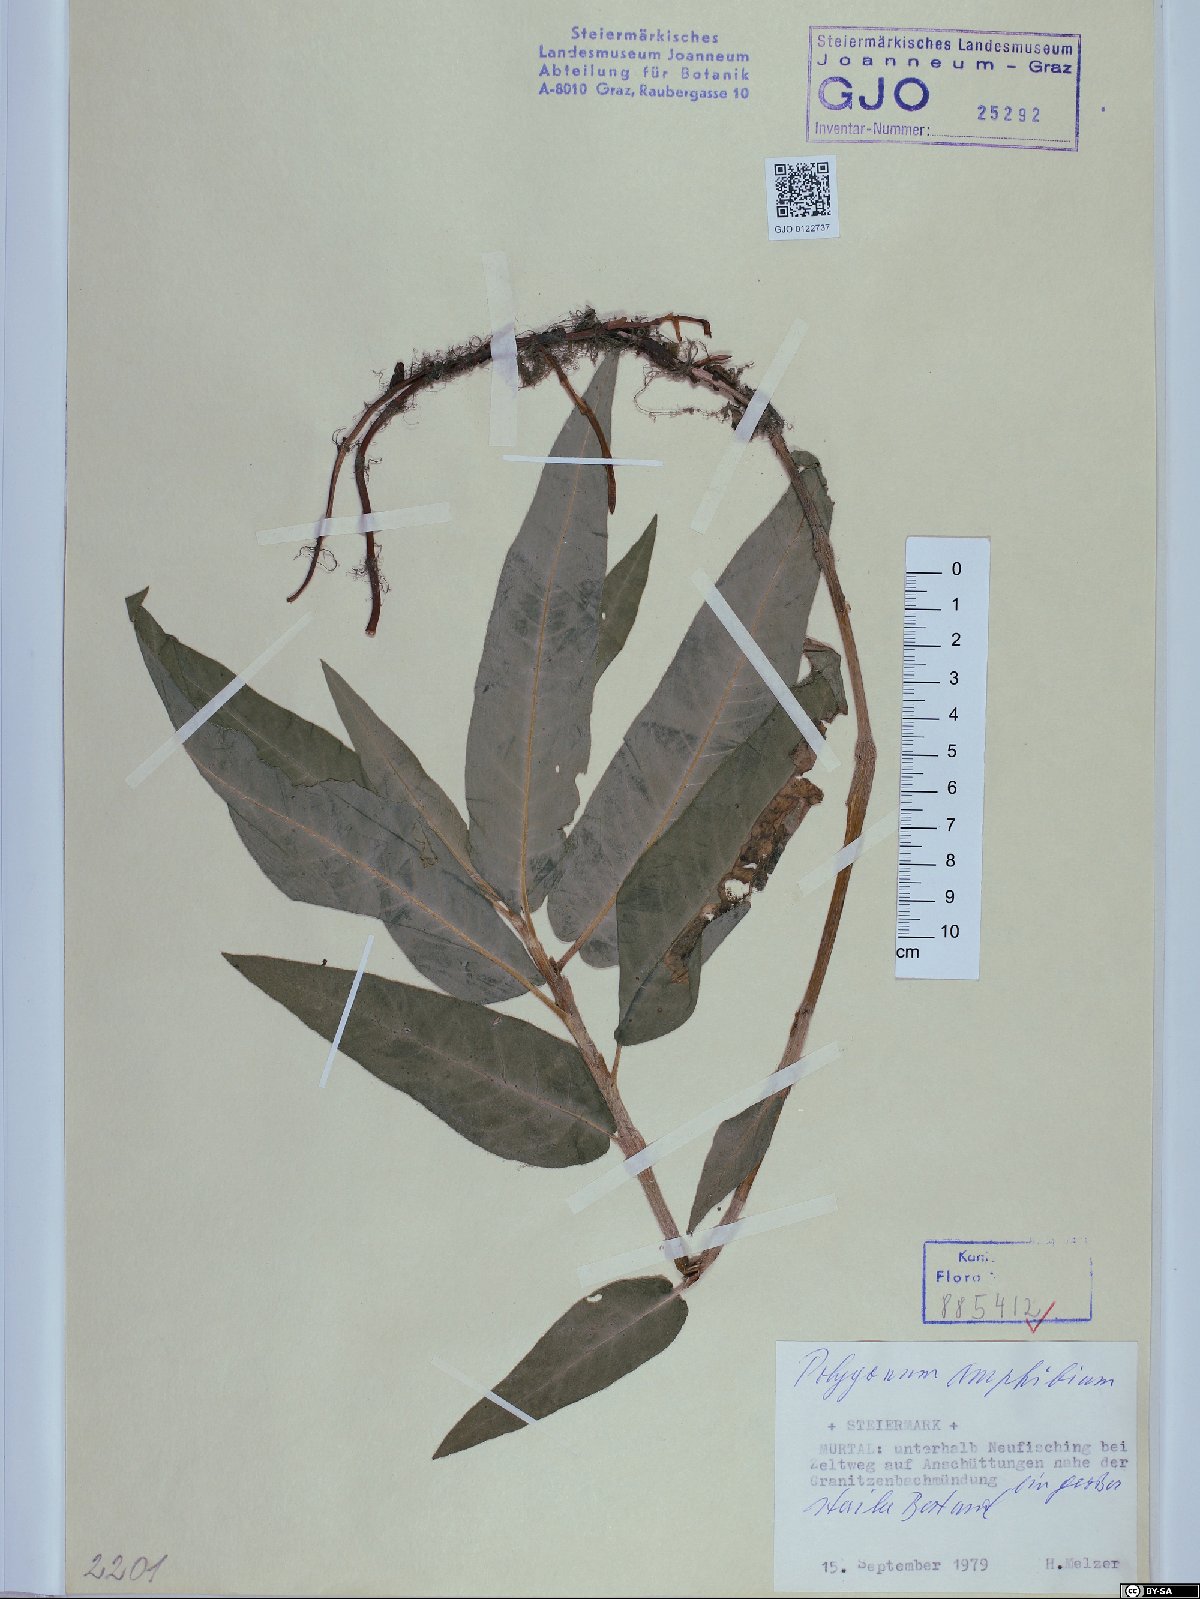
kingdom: Plantae
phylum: Tracheophyta
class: Magnoliopsida
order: Caryophyllales
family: Polygonaceae
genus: Persicaria
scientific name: Persicaria amphibia
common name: Amphibious bistort
